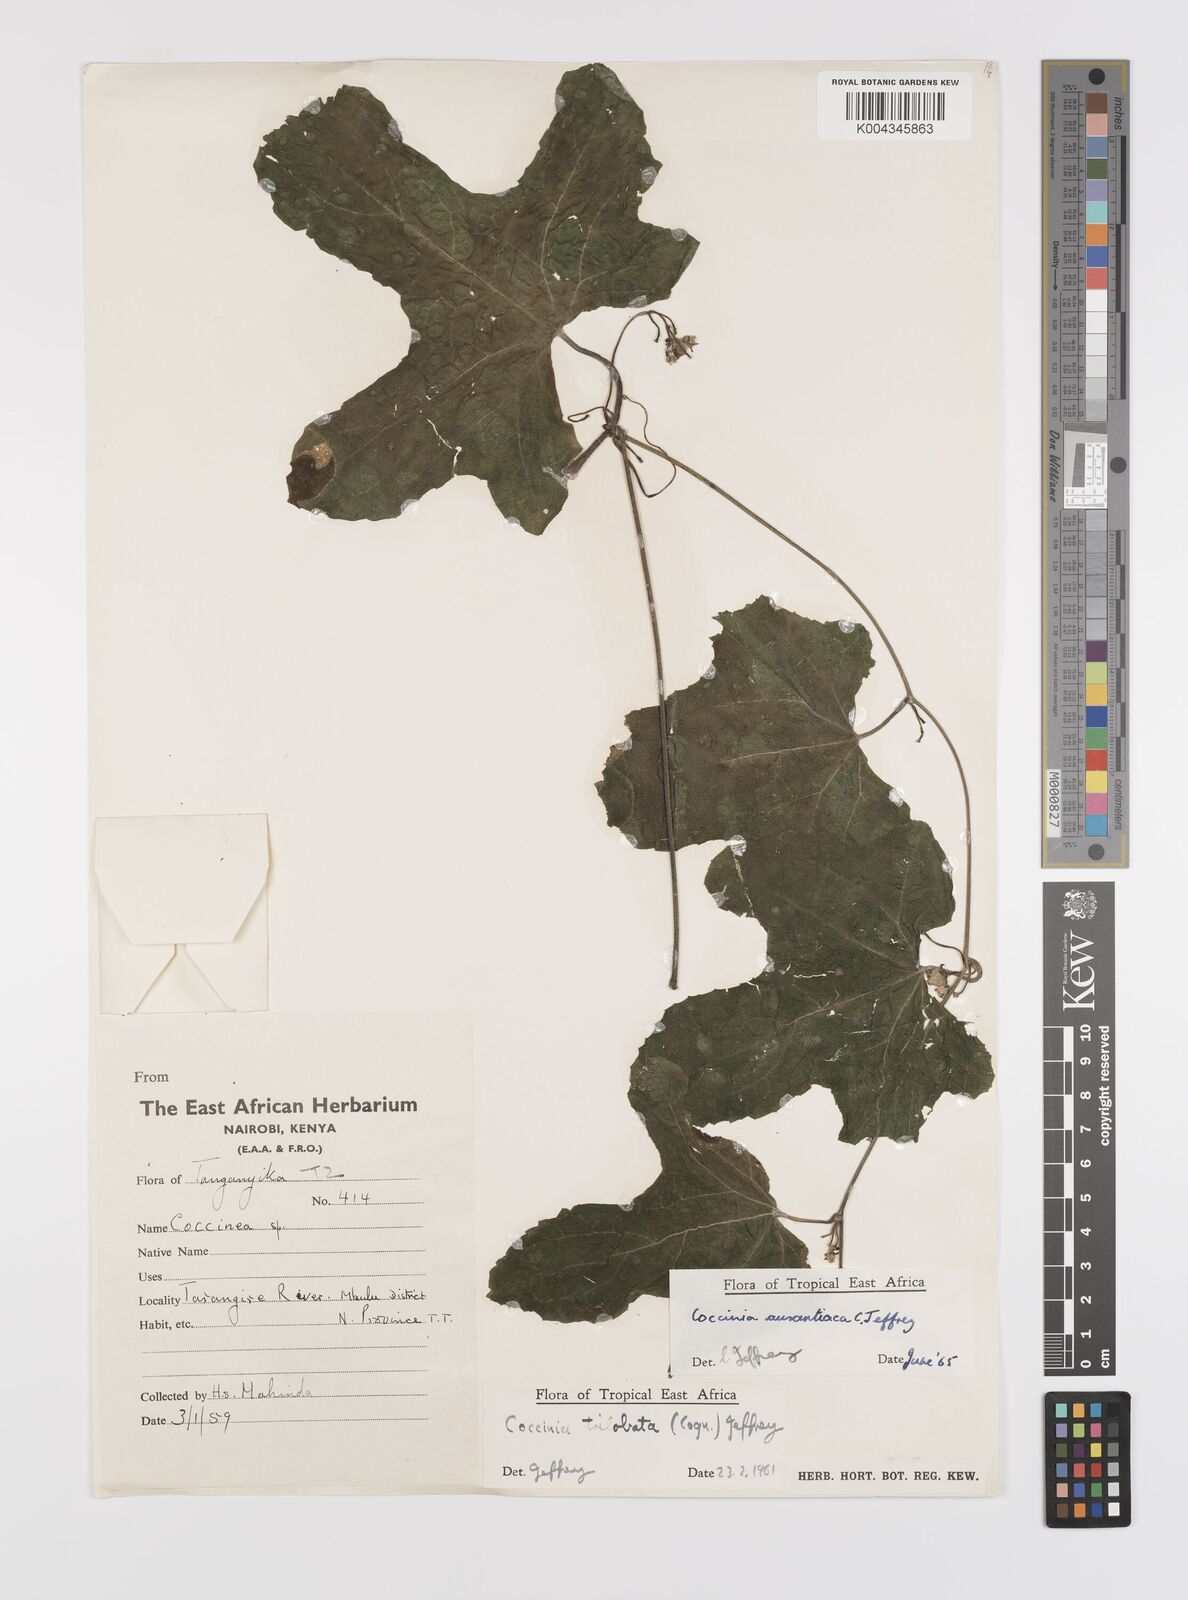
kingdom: Plantae
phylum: Tracheophyta
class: Magnoliopsida
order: Cucurbitales
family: Cucurbitaceae
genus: Coccinia
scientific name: Coccinia adoensis
